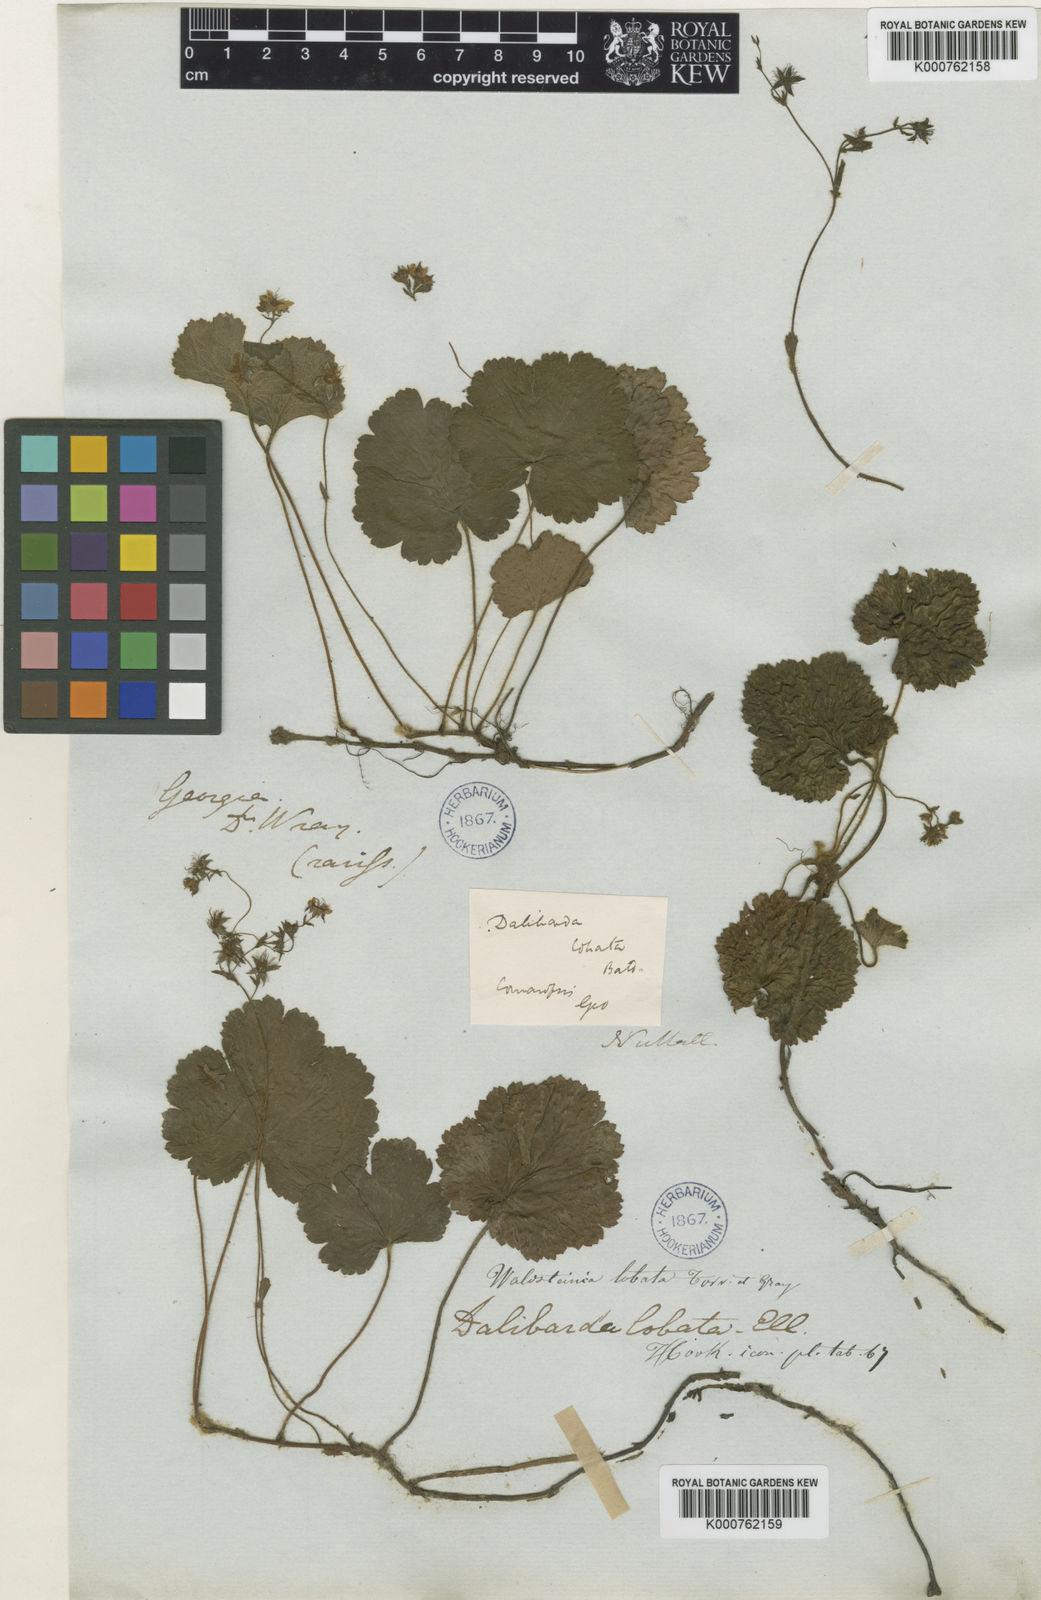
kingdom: Plantae
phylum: Tracheophyta
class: Magnoliopsida
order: Rosales
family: Rosaceae
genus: Geum
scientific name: Geum lobatum
